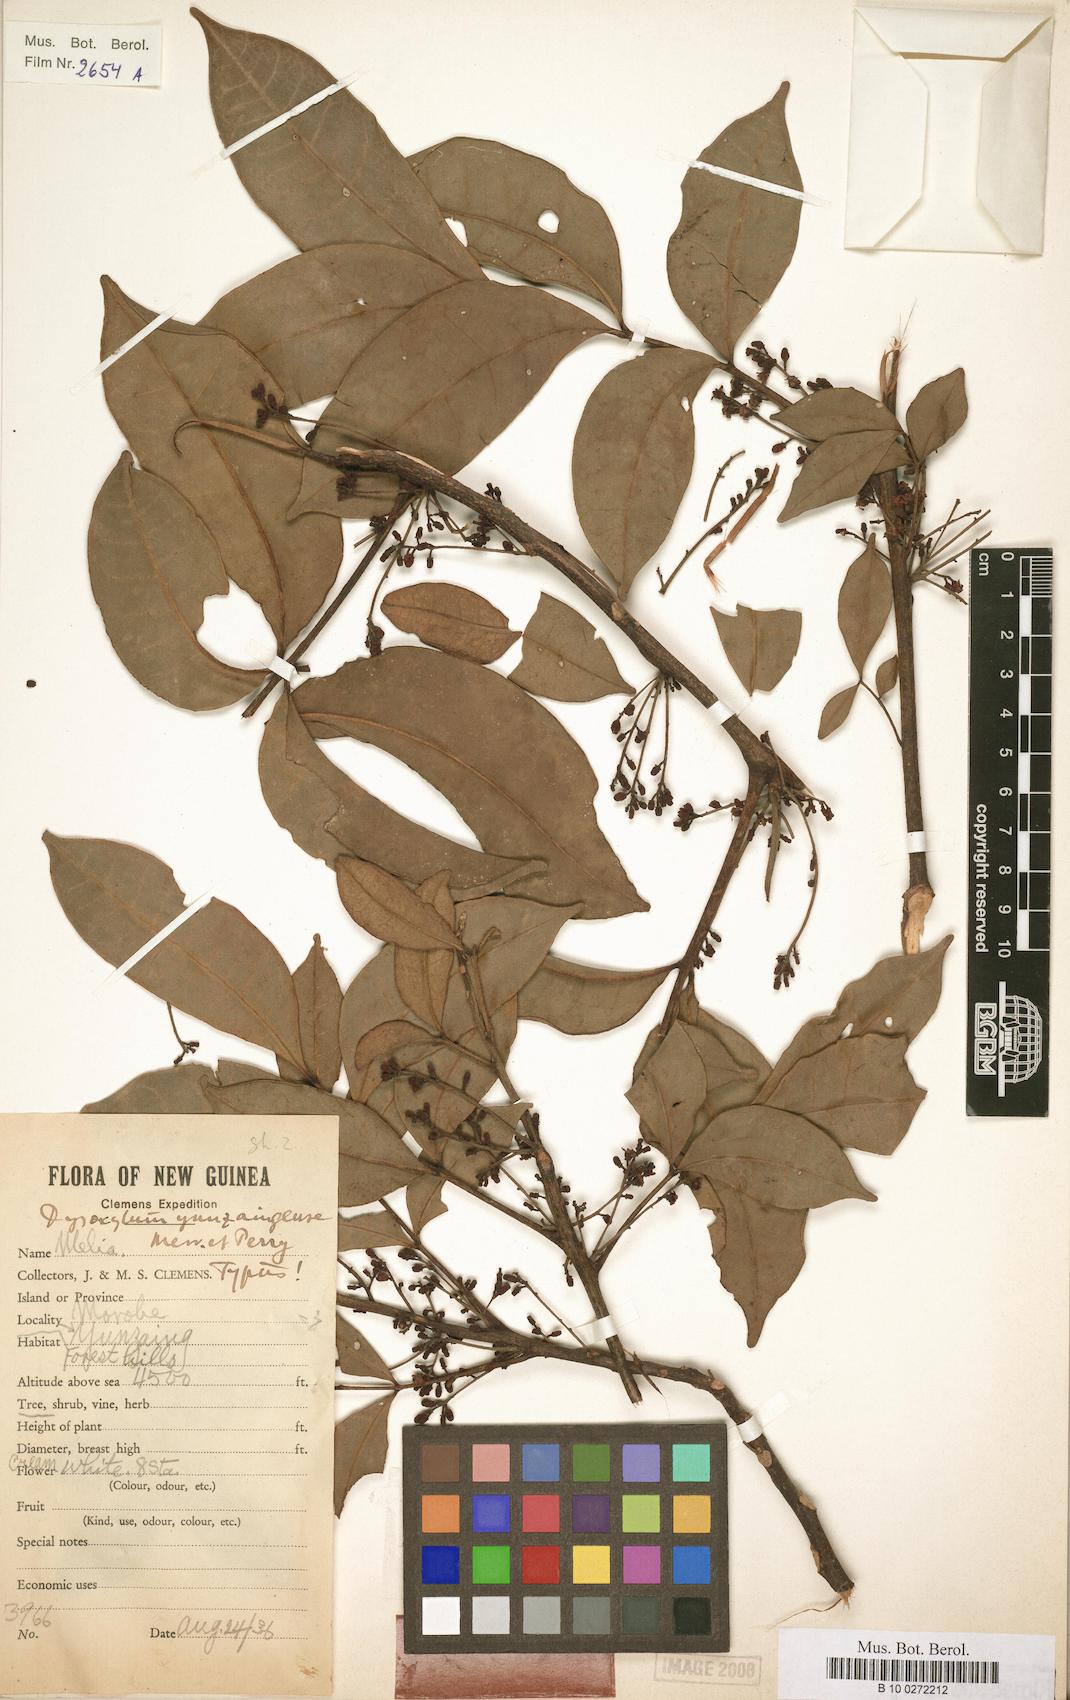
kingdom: Plantae
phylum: Tracheophyta
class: Magnoliopsida
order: Sapindales
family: Meliaceae
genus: Pseudocarapa
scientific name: Pseudocarapa yunzaingensis
